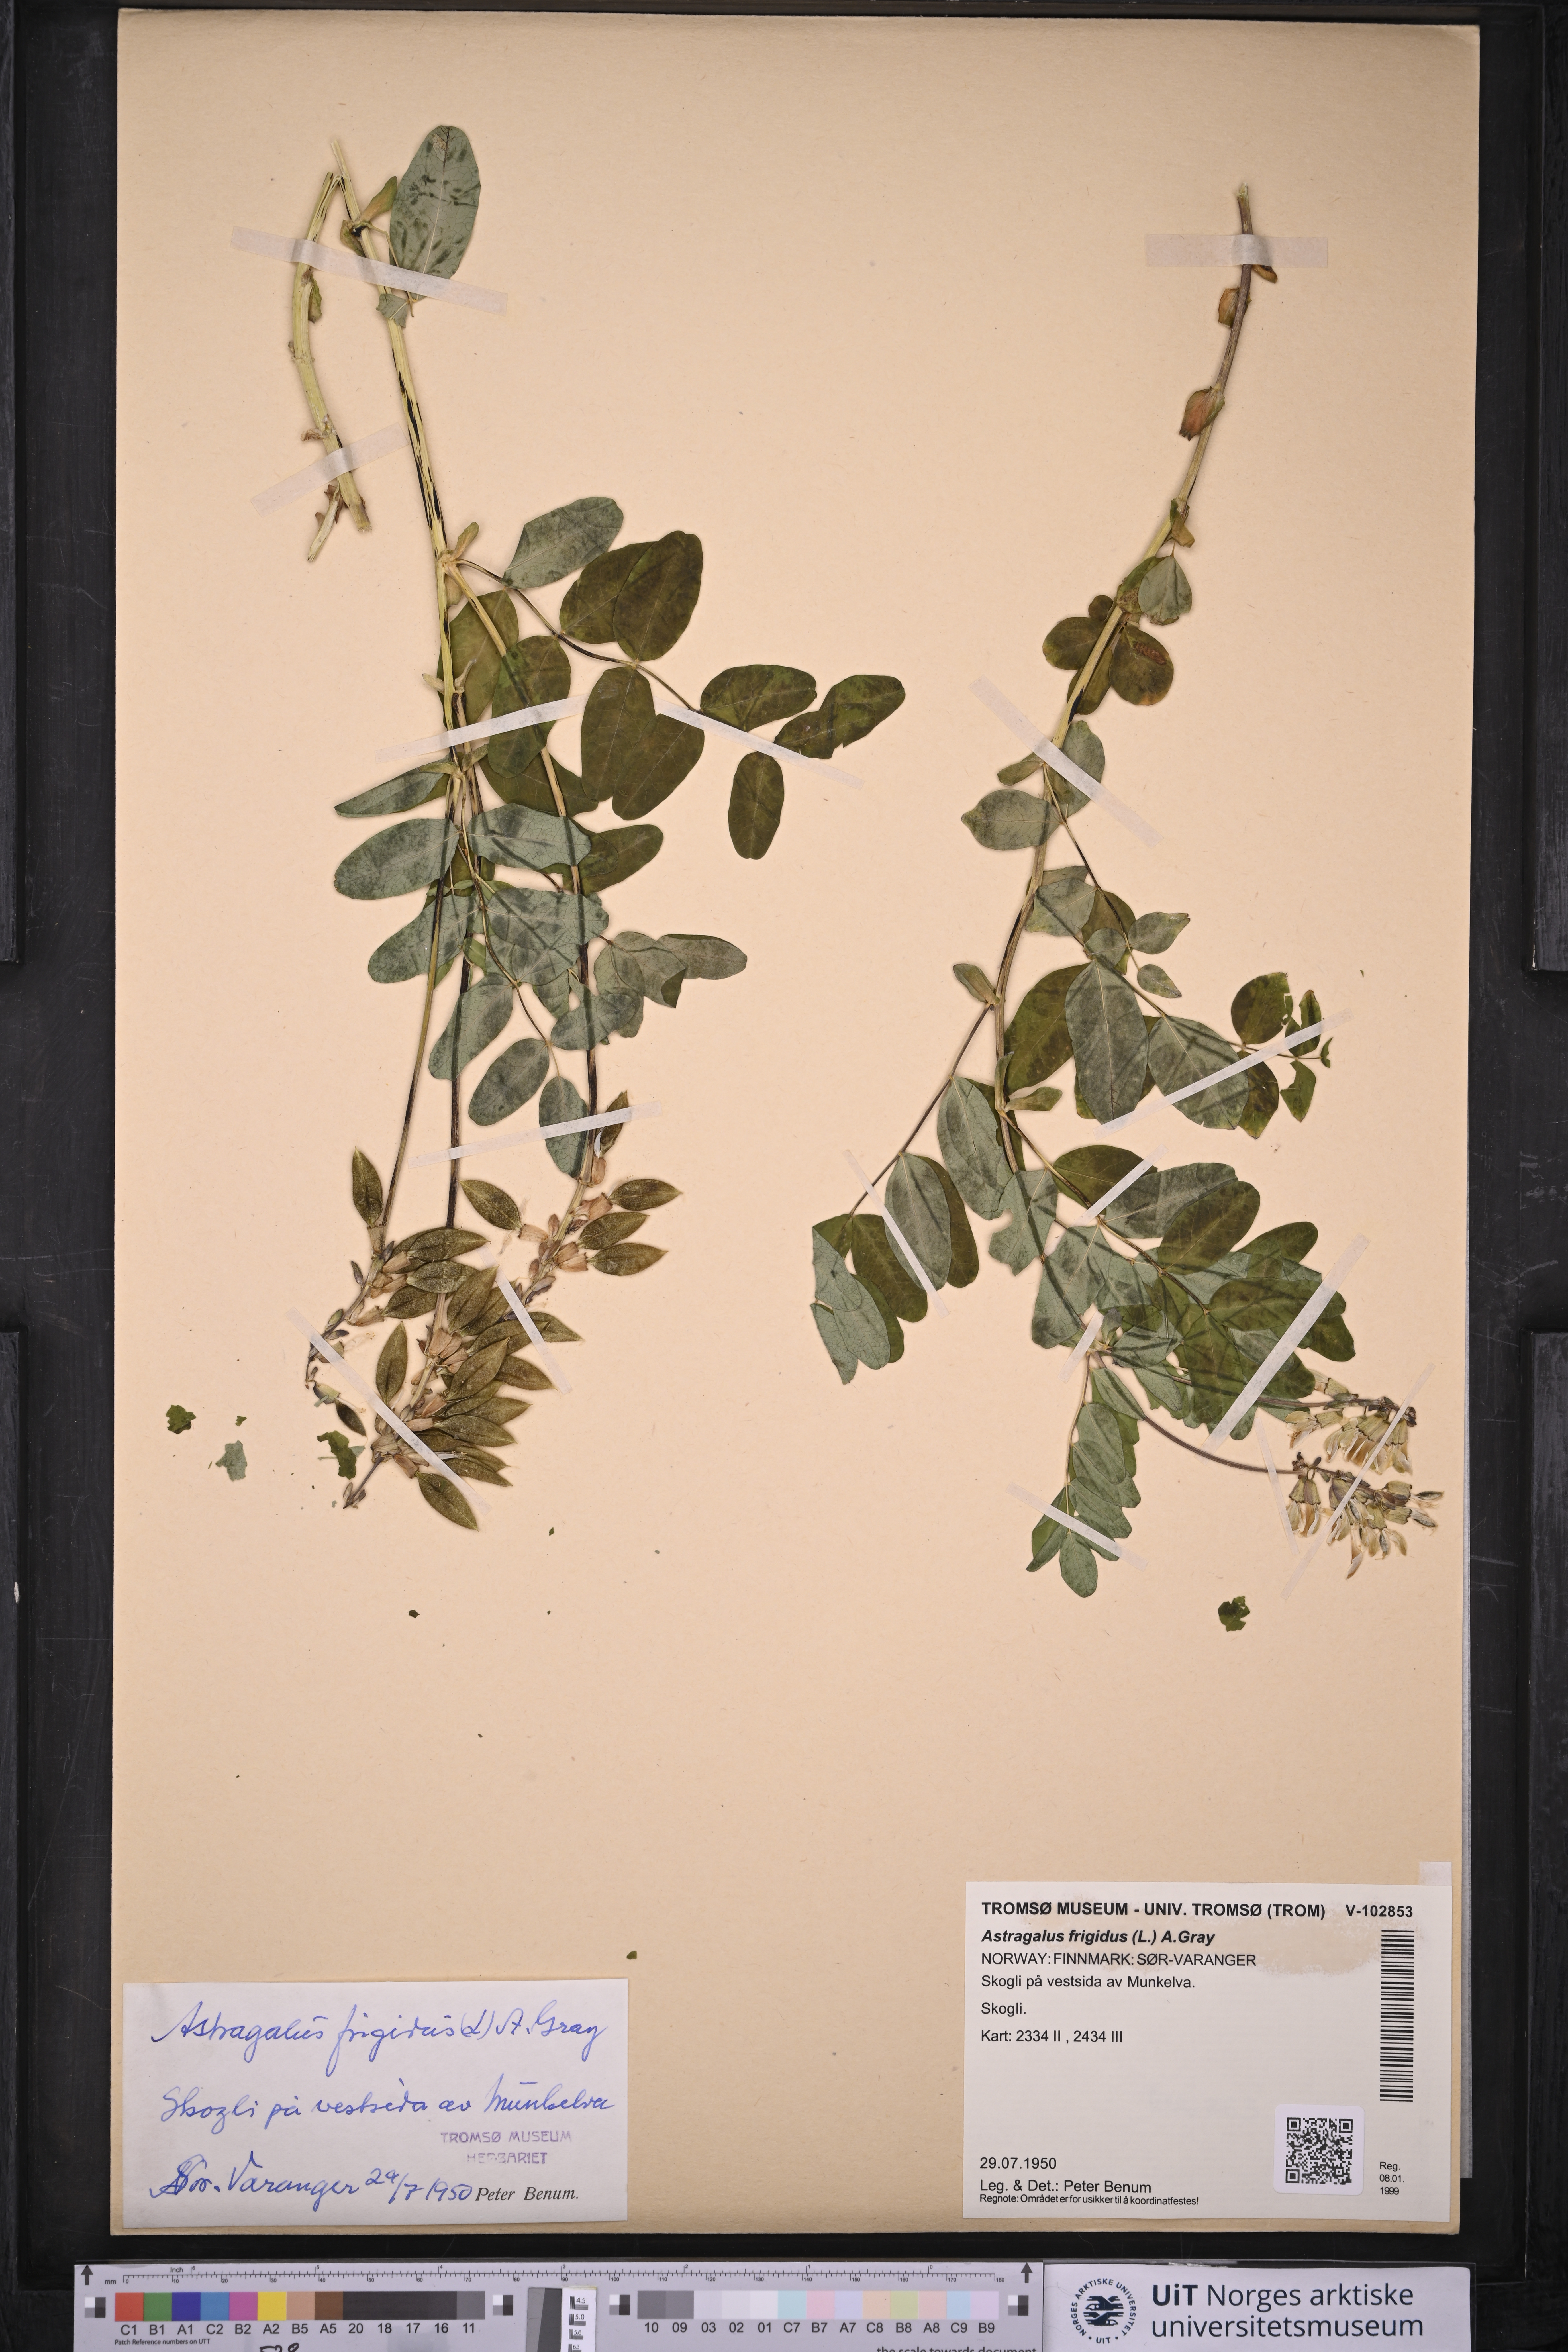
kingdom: Plantae
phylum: Tracheophyta
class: Magnoliopsida
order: Fabales
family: Fabaceae
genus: Astragalus
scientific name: Astragalus frigidus
